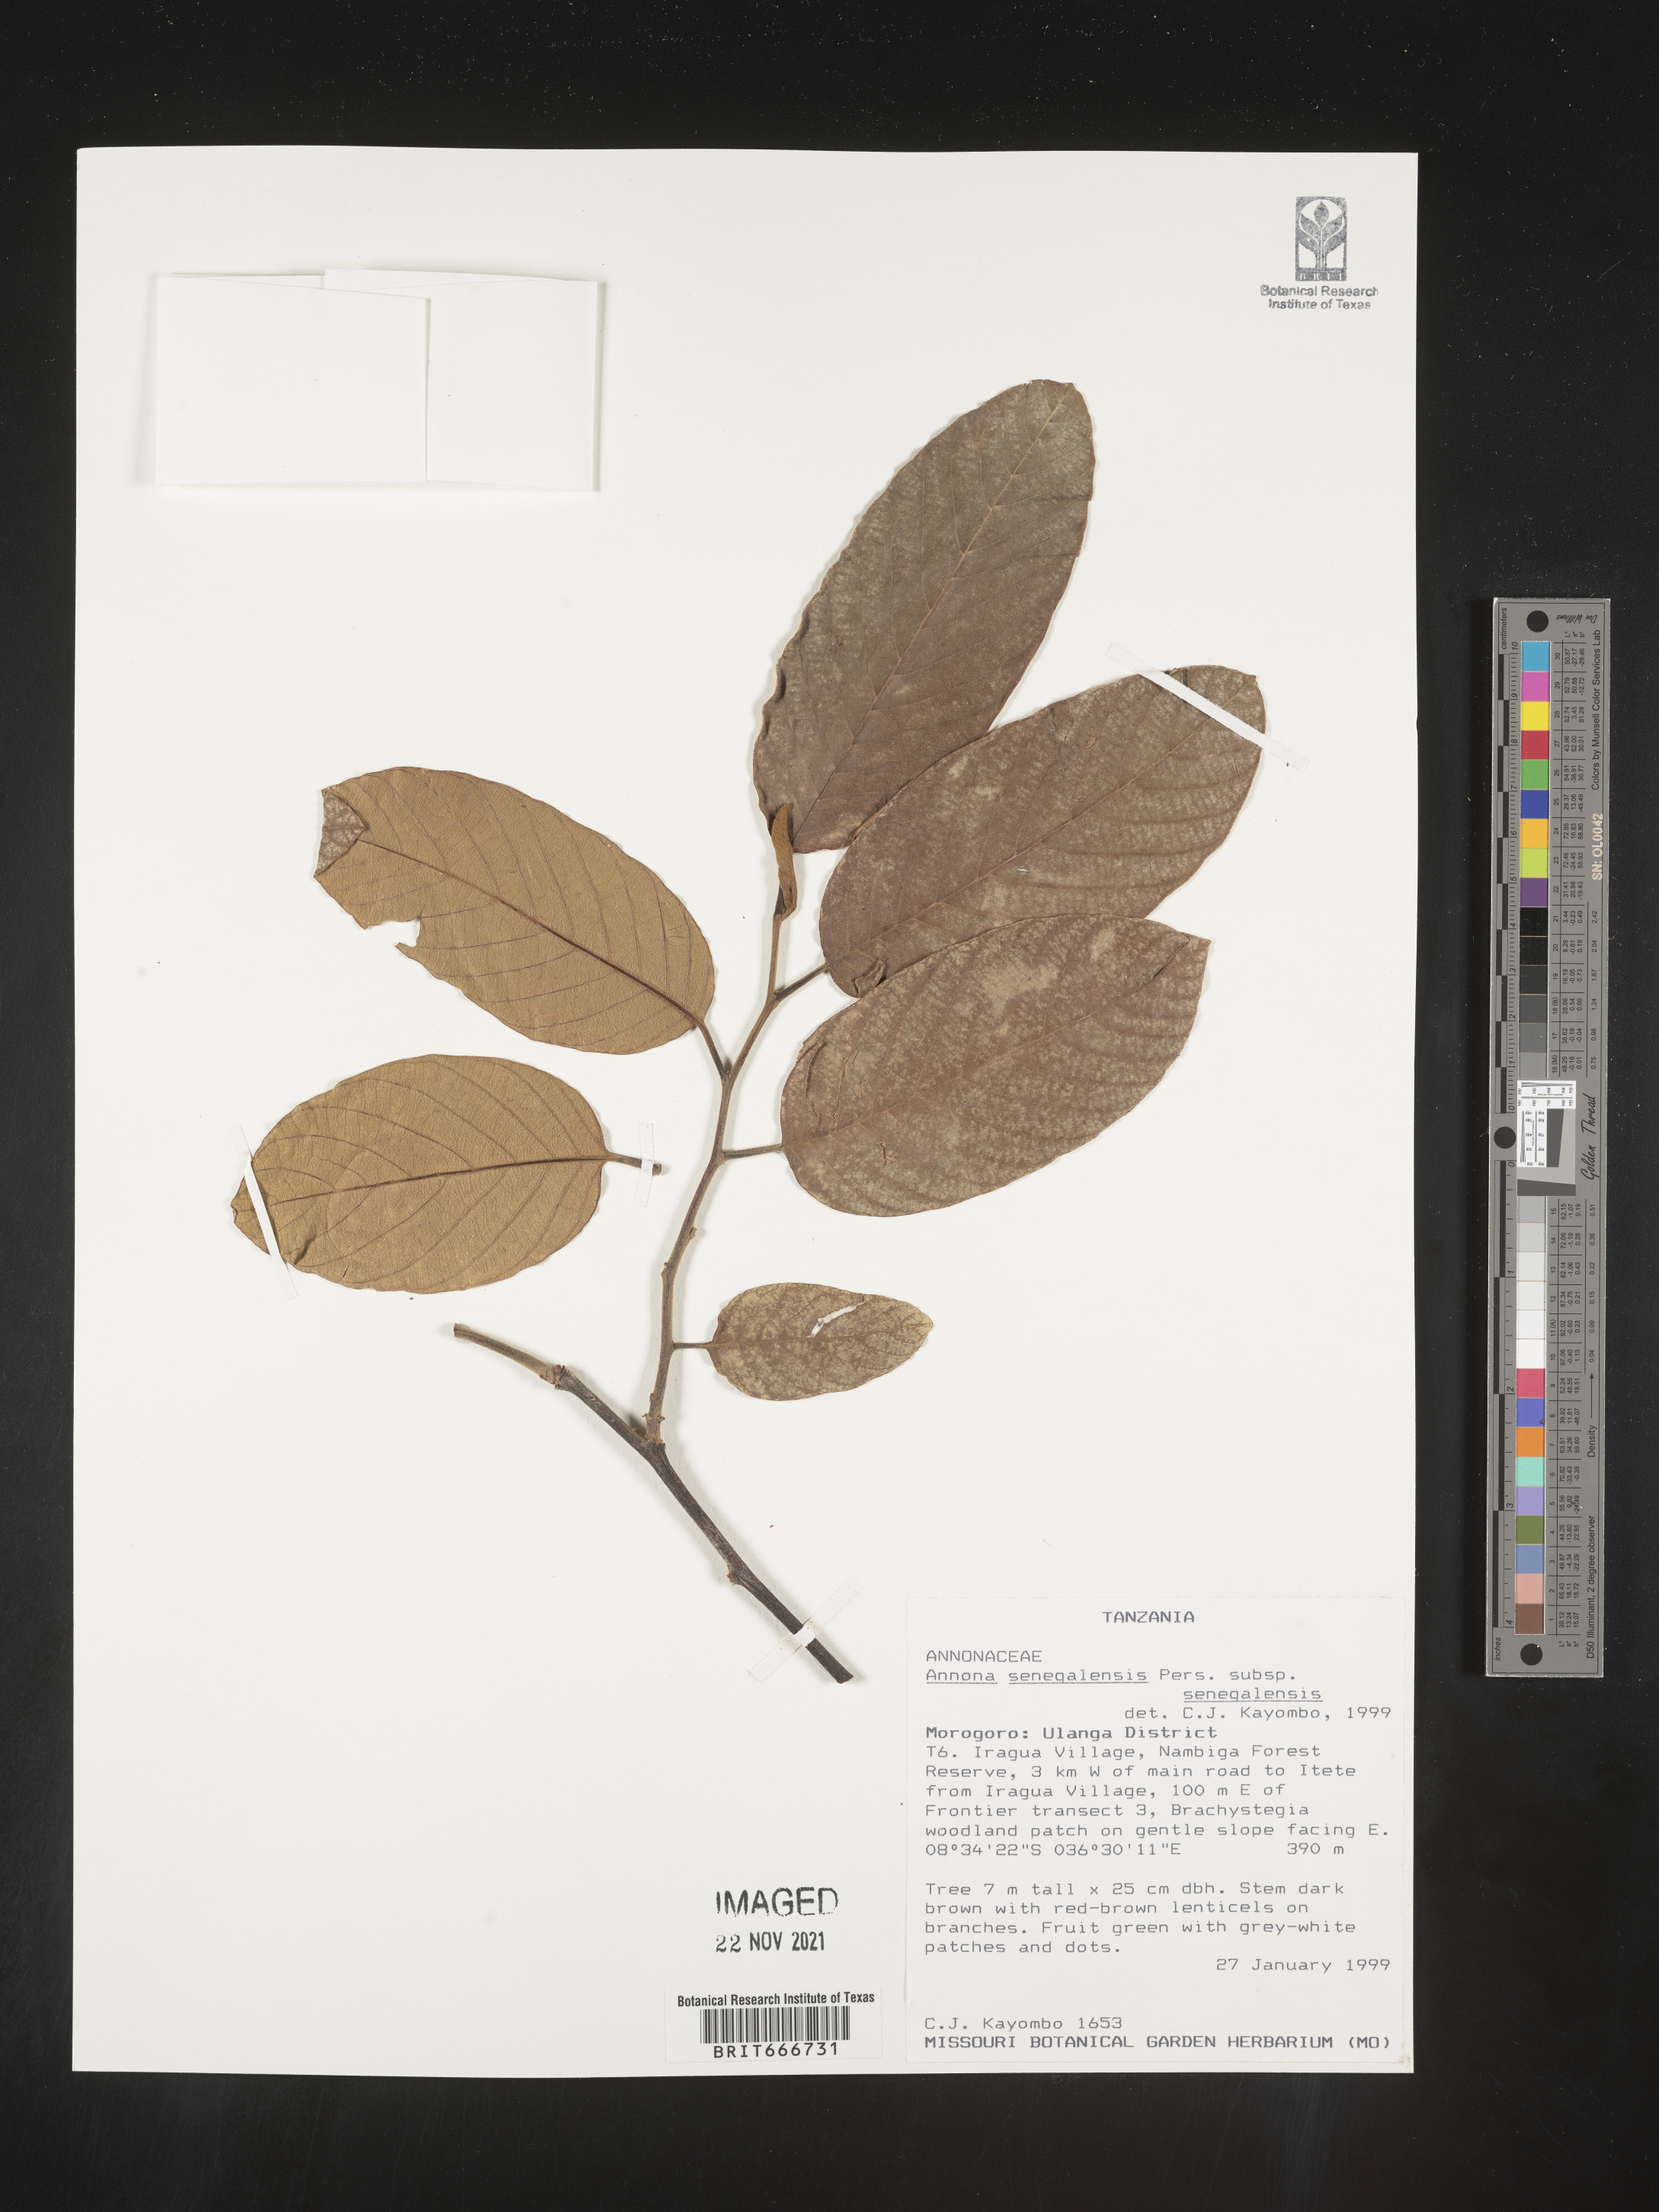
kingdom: Plantae
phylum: Tracheophyta
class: Magnoliopsida
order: Magnoliales
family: Annonaceae
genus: Annona
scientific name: Annona
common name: Anona
